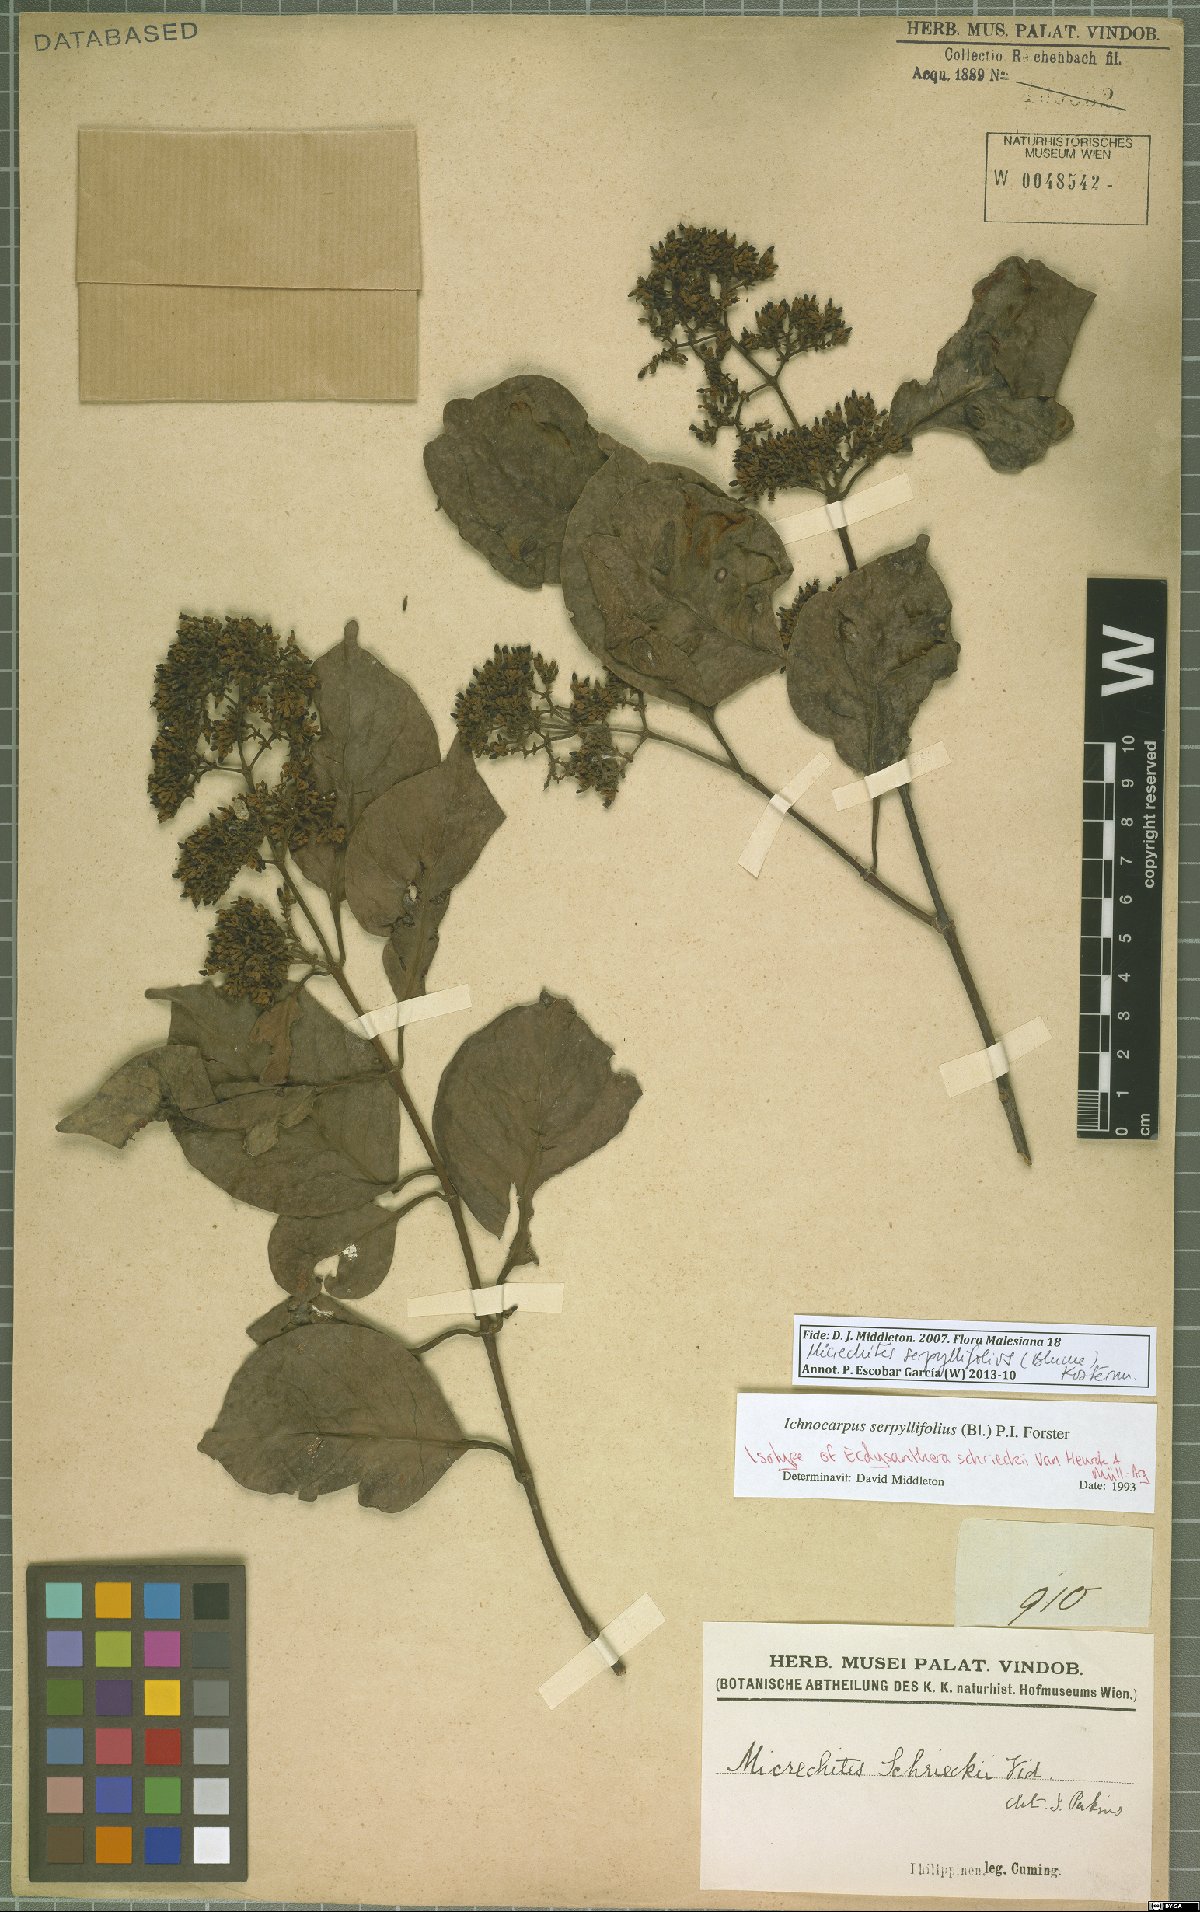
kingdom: Plantae
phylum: Tracheophyta
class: Magnoliopsida
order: Gentianales
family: Apocynaceae
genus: Micrechites
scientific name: Micrechites serpyllifolia
